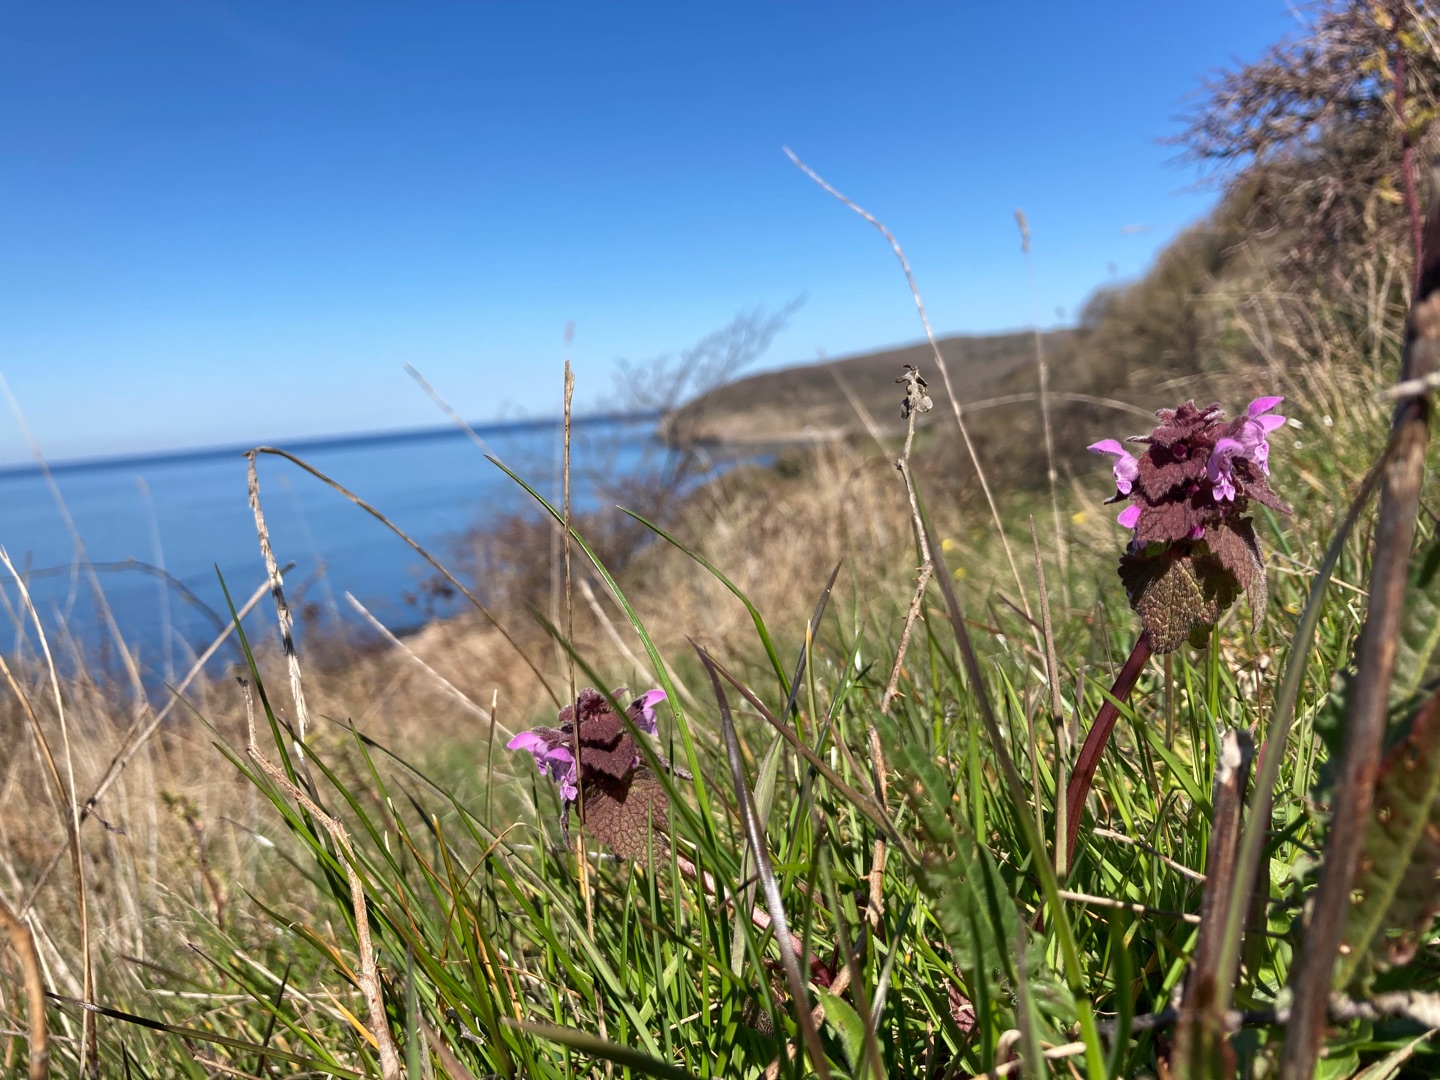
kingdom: Plantae
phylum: Tracheophyta
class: Magnoliopsida
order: Lamiales
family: Lamiaceae
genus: Lamium
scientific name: Lamium purpureum
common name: Rød tvetand
